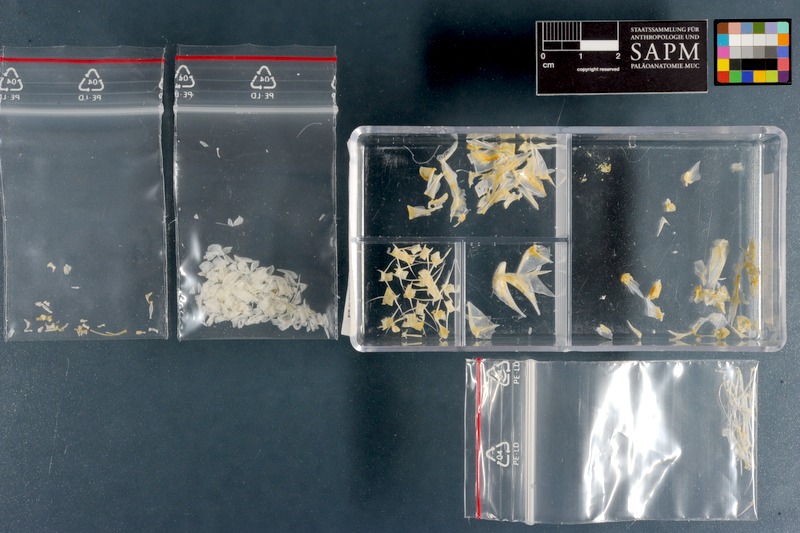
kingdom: Animalia
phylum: Chordata
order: Perciformes
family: Mullidae
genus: Parupeneus
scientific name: Parupeneus indicus
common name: Indian goatfish
